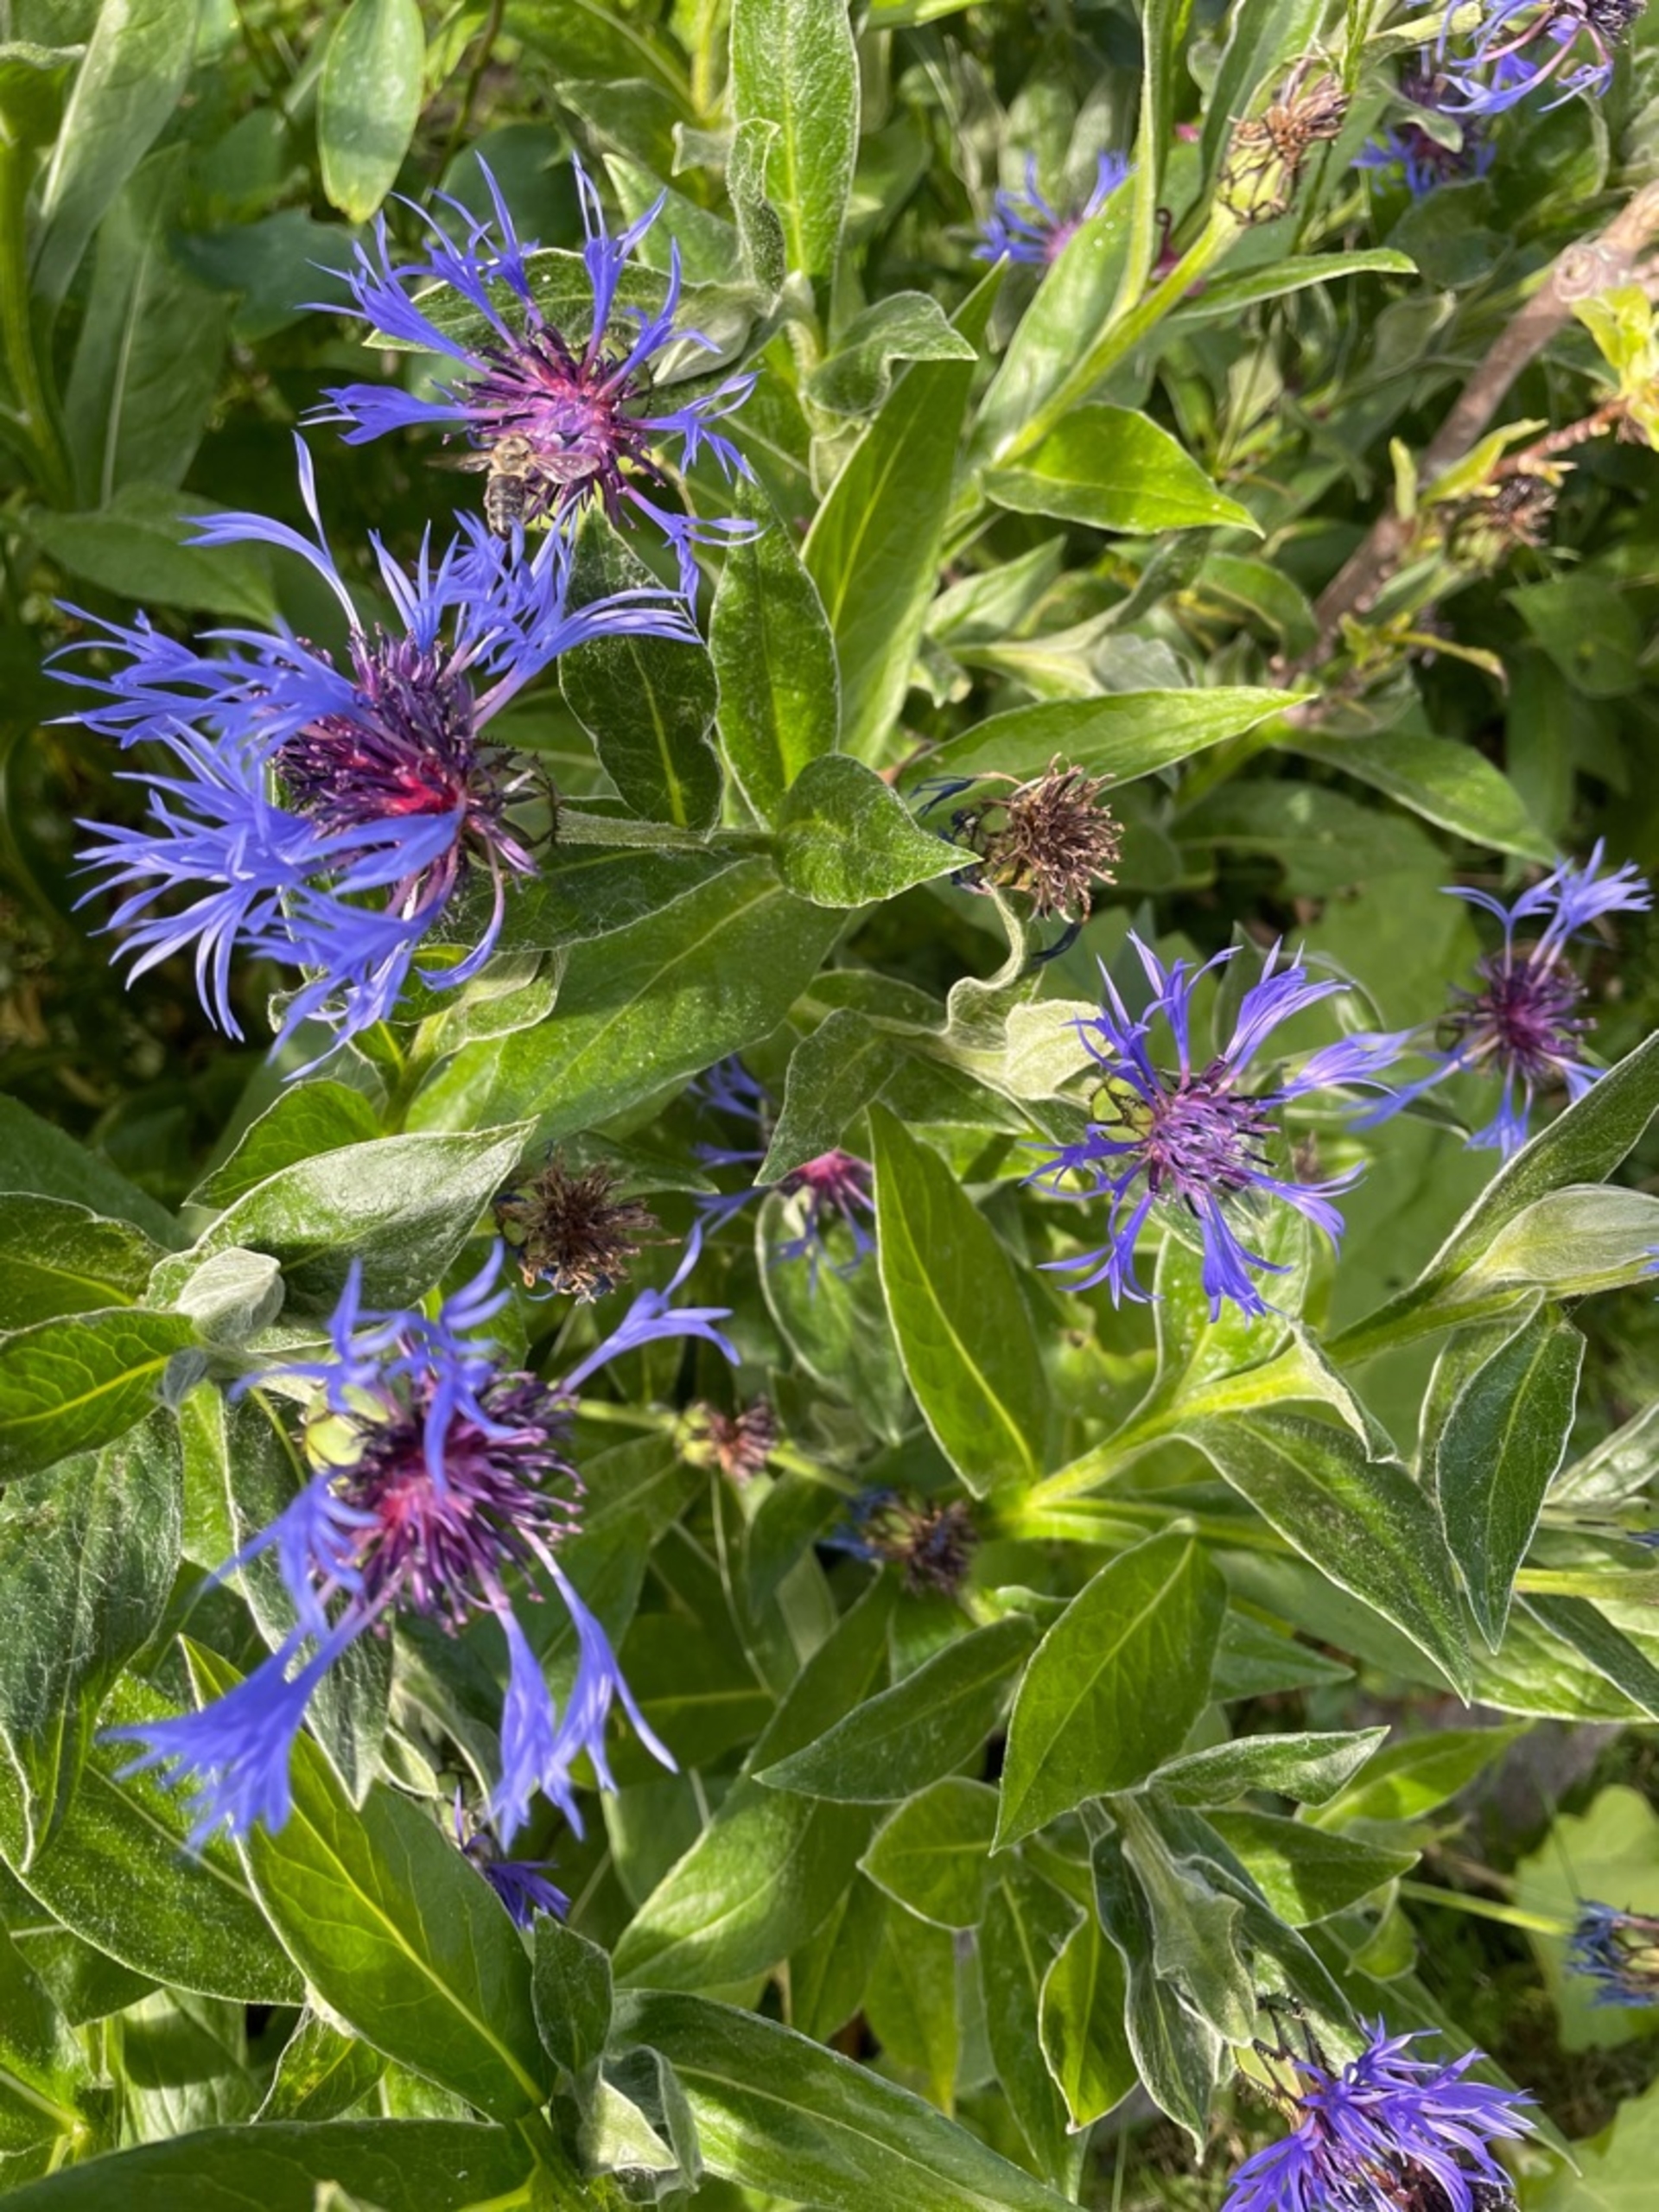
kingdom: Plantae
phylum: Tracheophyta
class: Magnoliopsida
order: Asterales
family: Asteraceae
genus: Centaurea
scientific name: Centaurea montana
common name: Bjerg-knopurt
